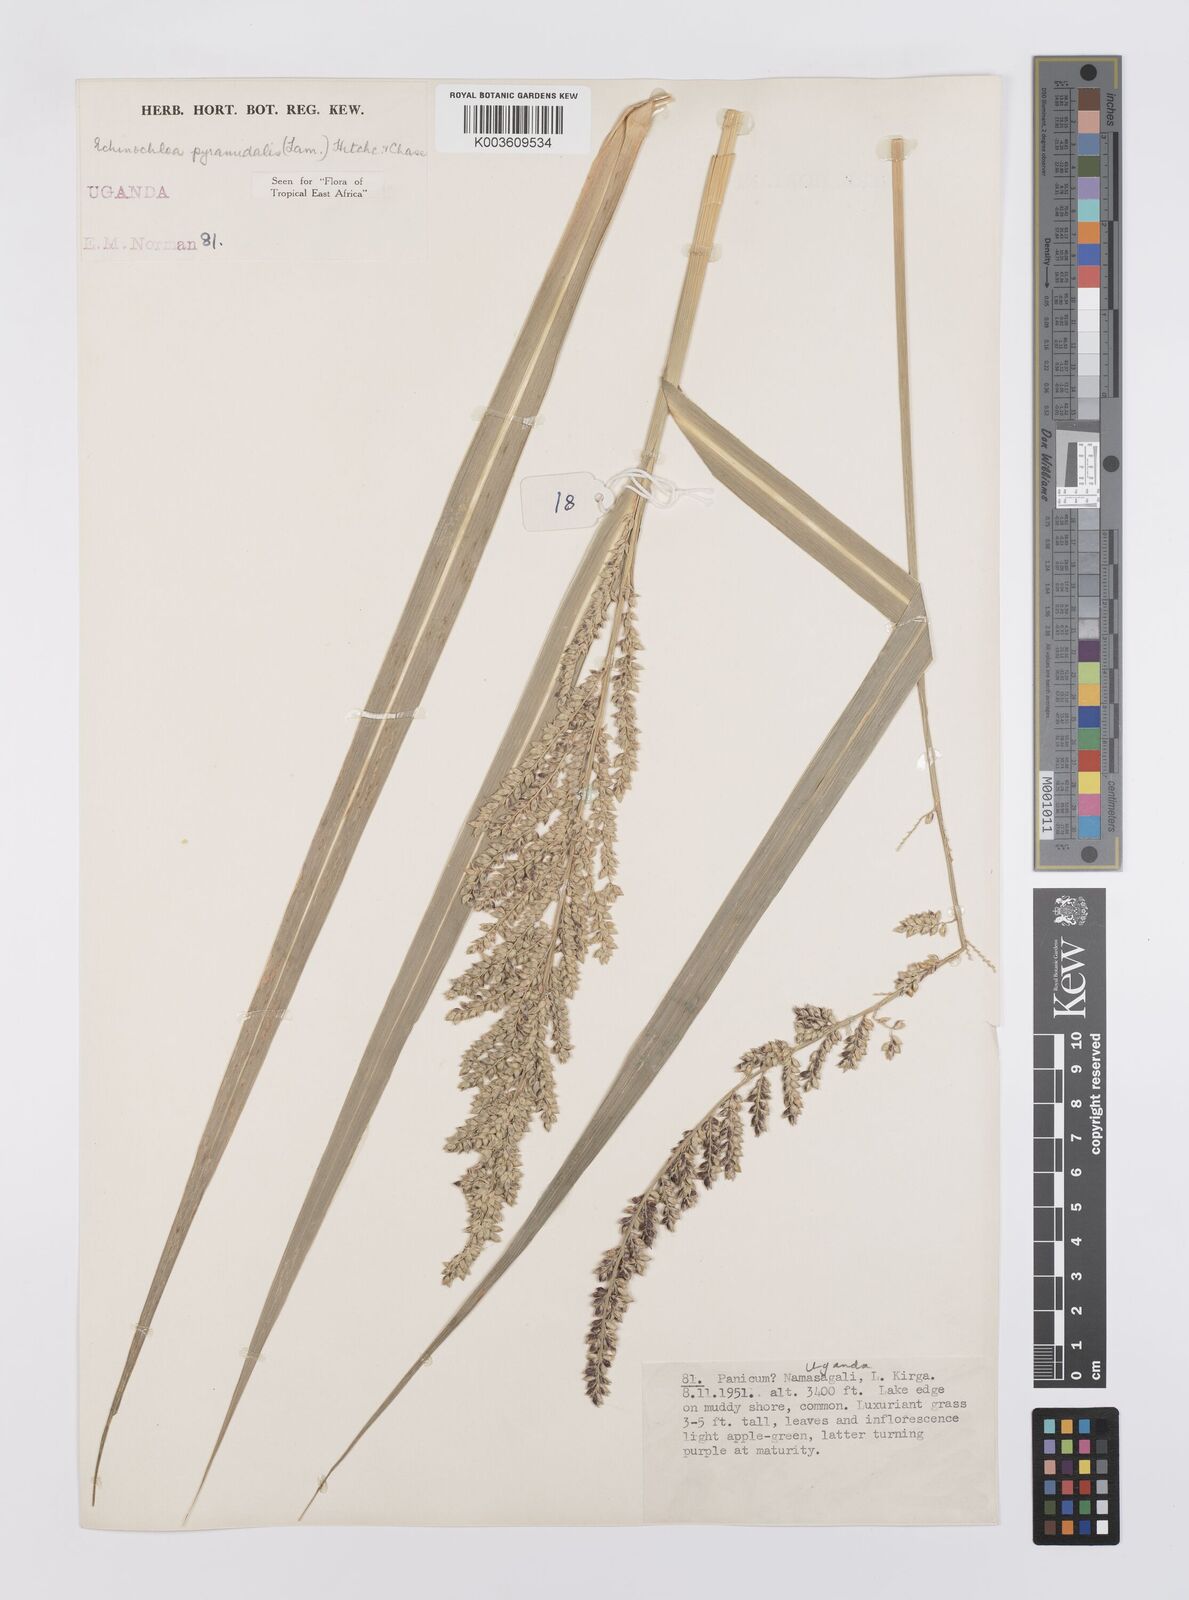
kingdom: Plantae
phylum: Tracheophyta
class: Liliopsida
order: Poales
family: Poaceae
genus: Echinochloa
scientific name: Echinochloa pyramidalis
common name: Antelope grass
